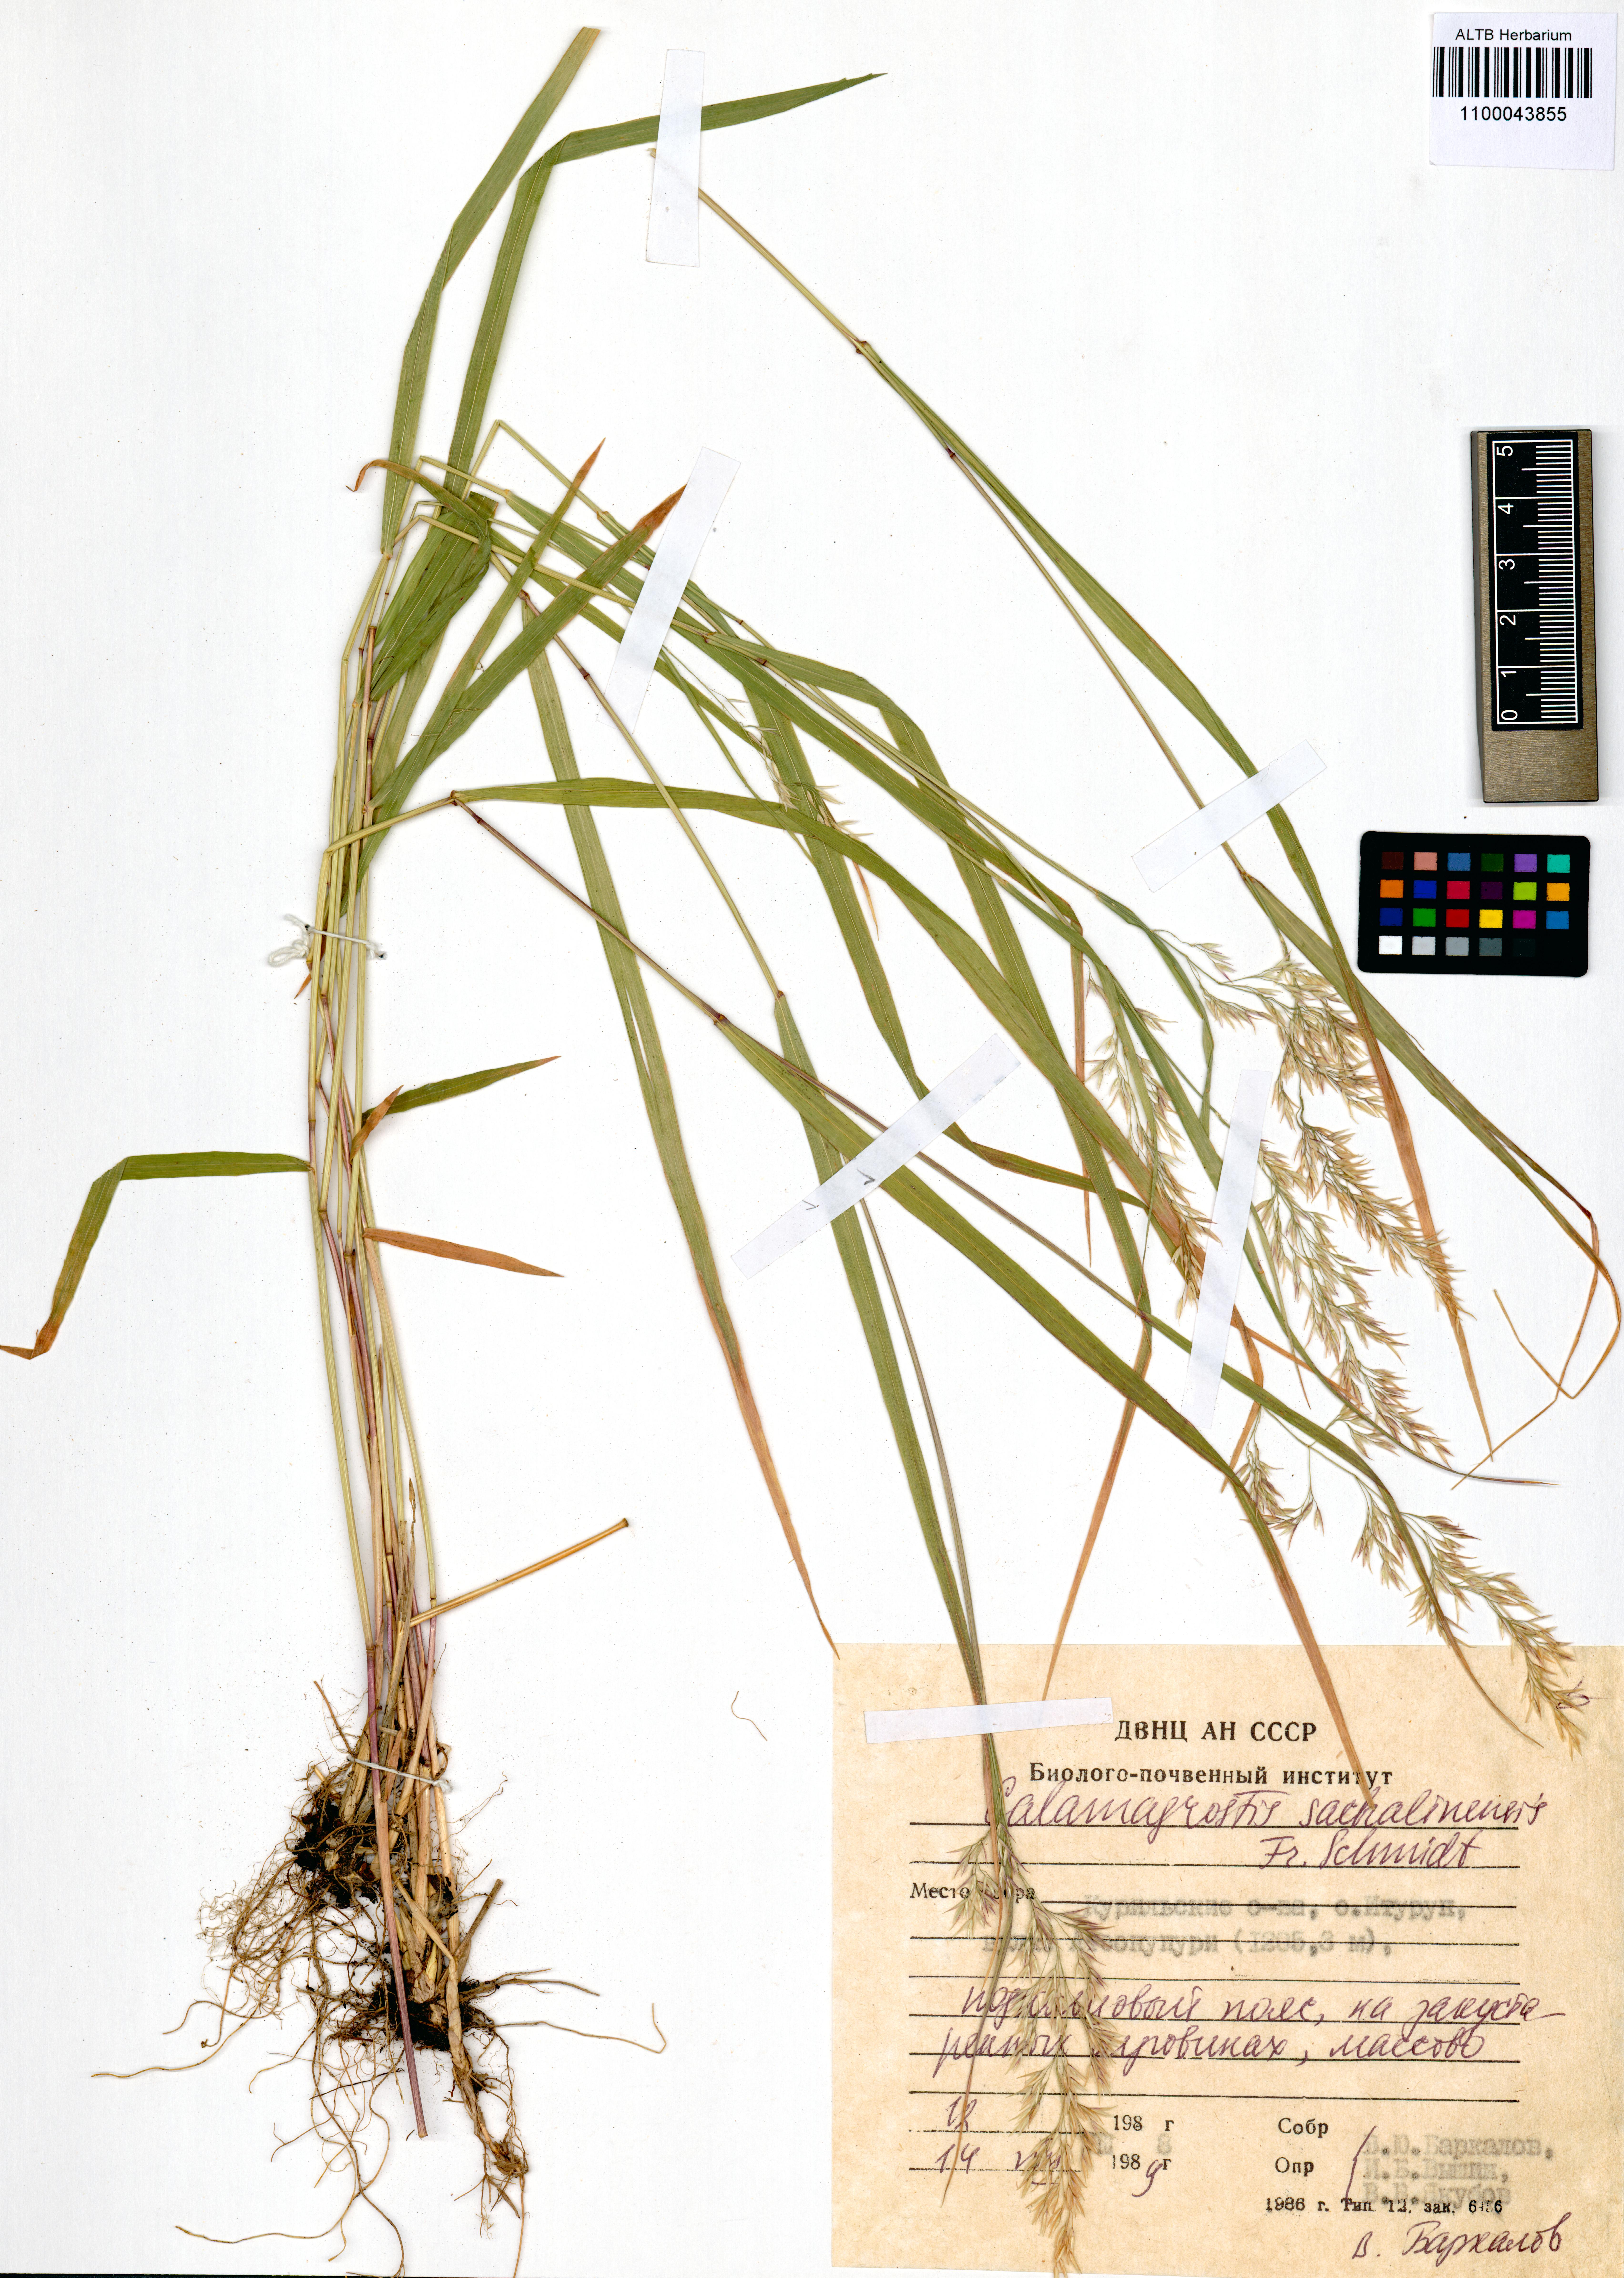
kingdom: Plantae
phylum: Tracheophyta
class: Liliopsida
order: Poales
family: Poaceae
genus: Calamagrostis
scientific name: Calamagrostis sachalinensis
